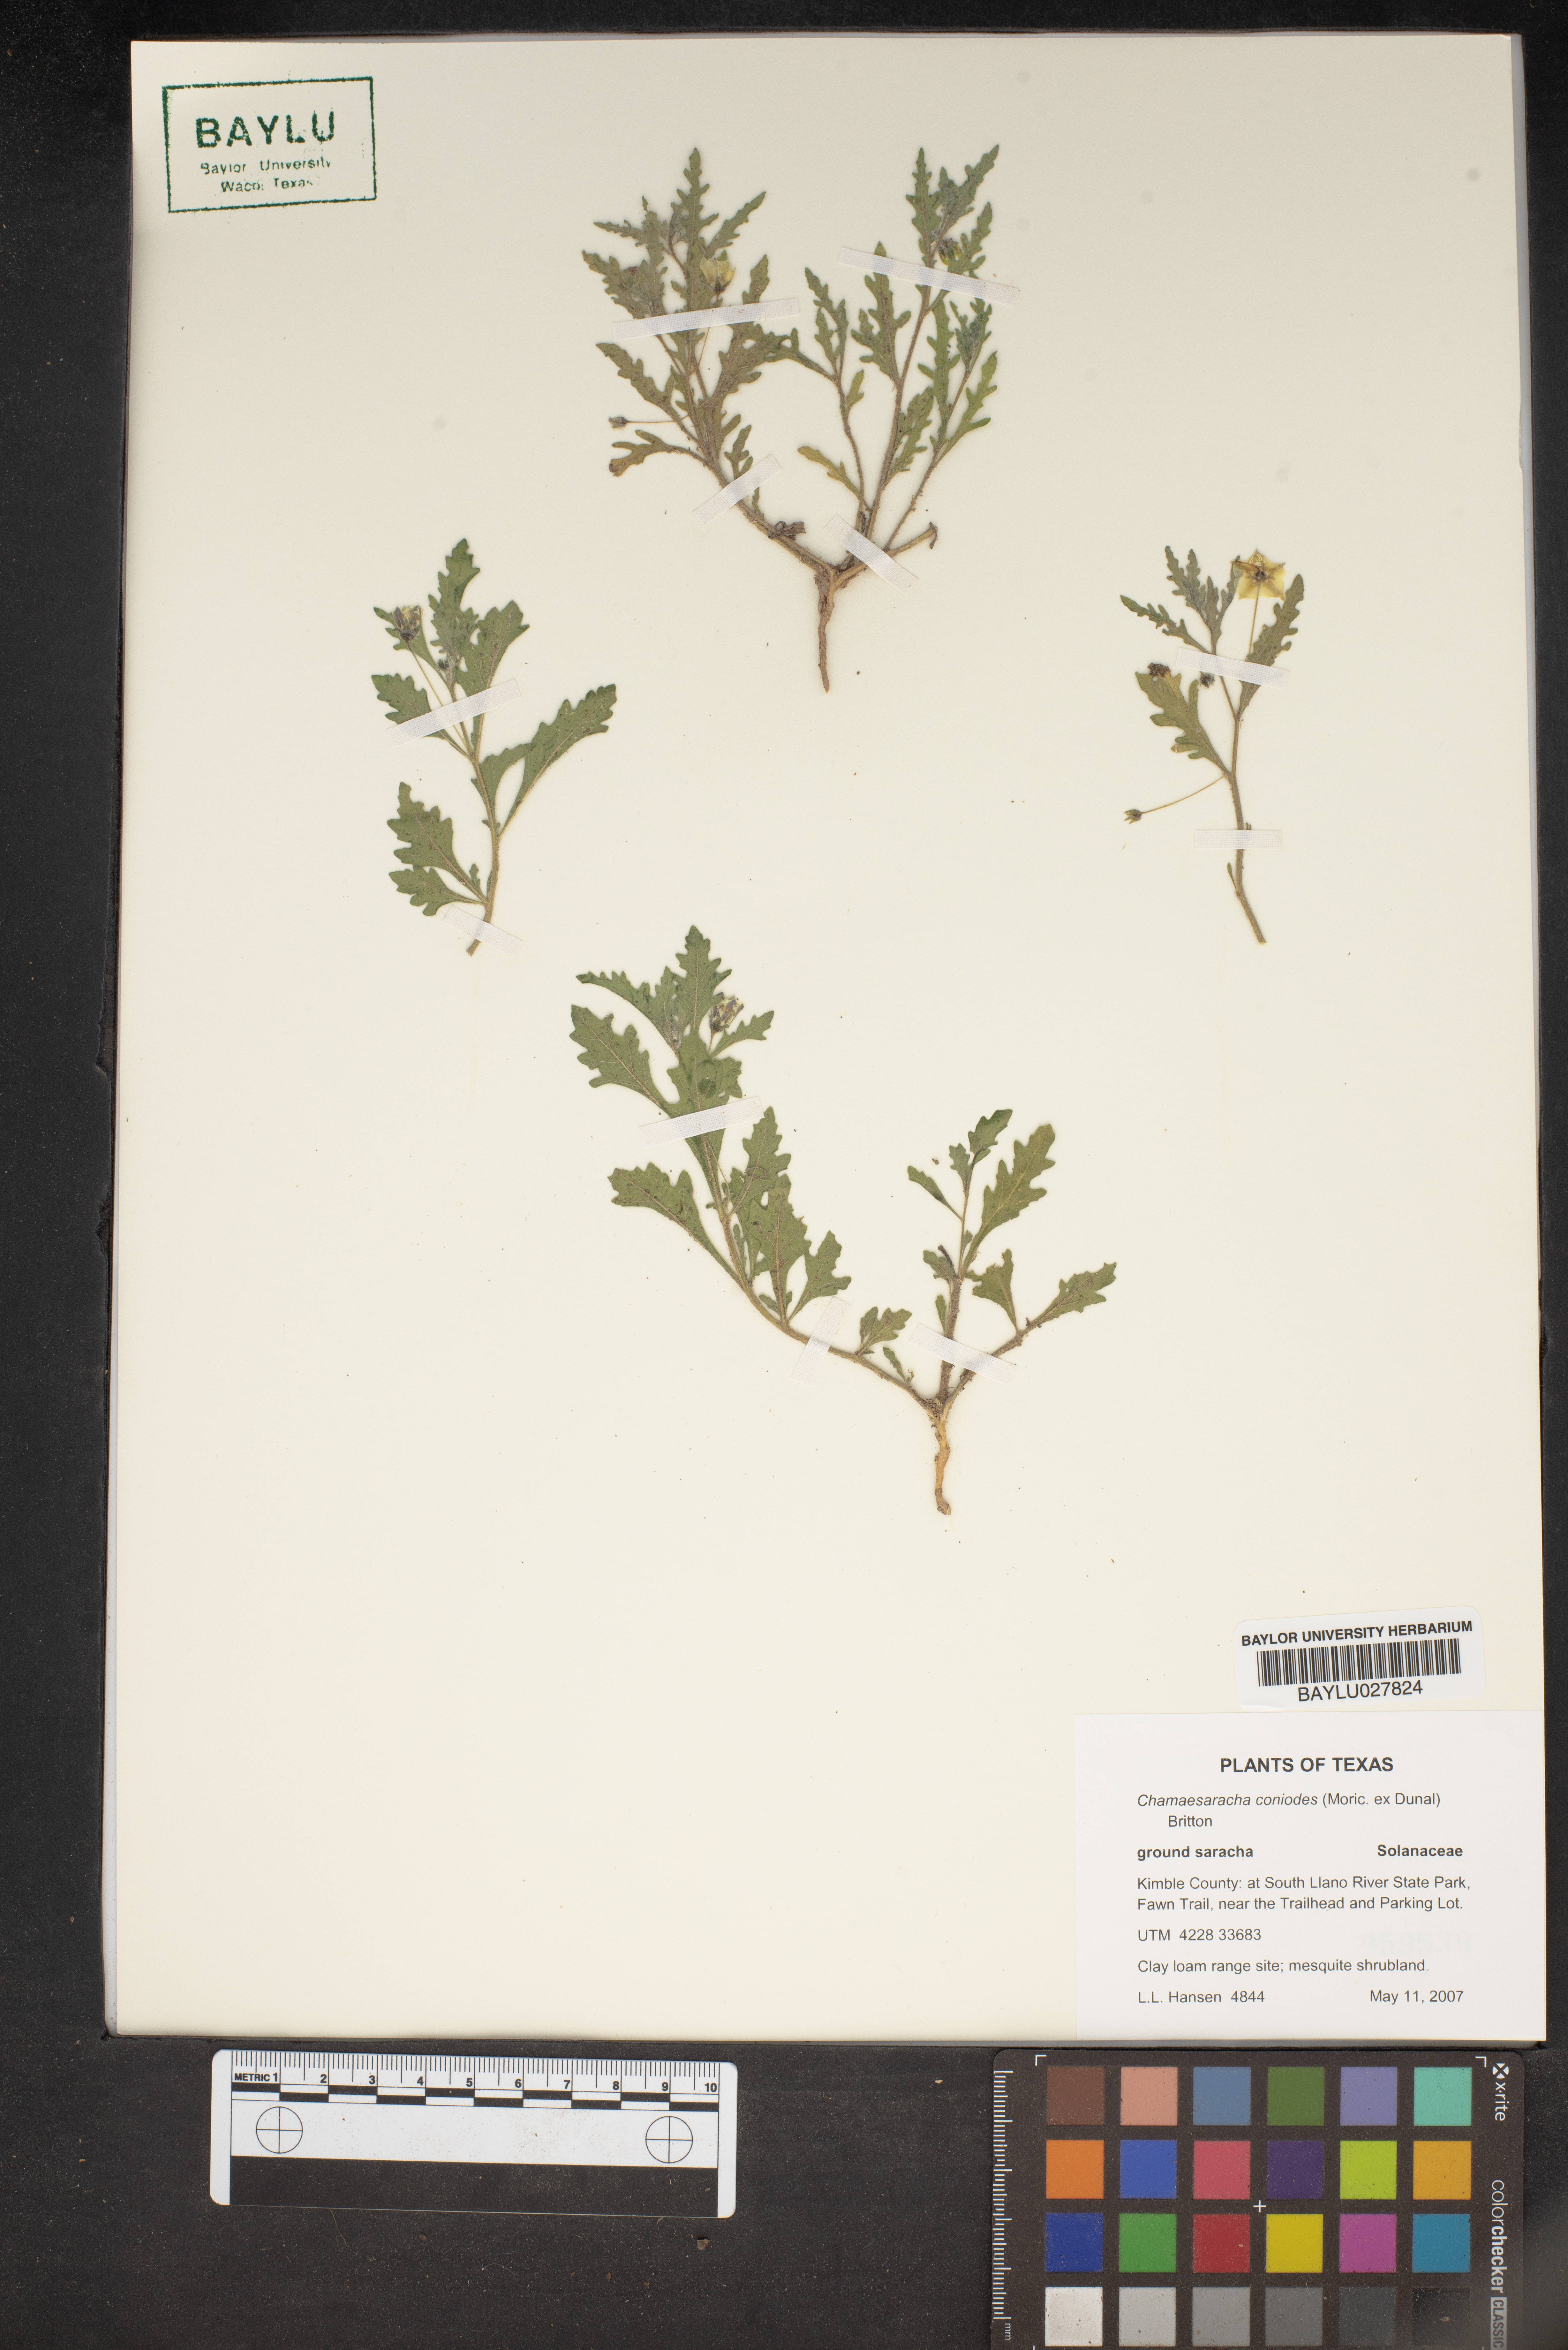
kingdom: Plantae
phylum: Tracheophyta
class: Magnoliopsida
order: Solanales
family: Solanaceae
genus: Chamaesaracha
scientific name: Chamaesaracha coniodes
